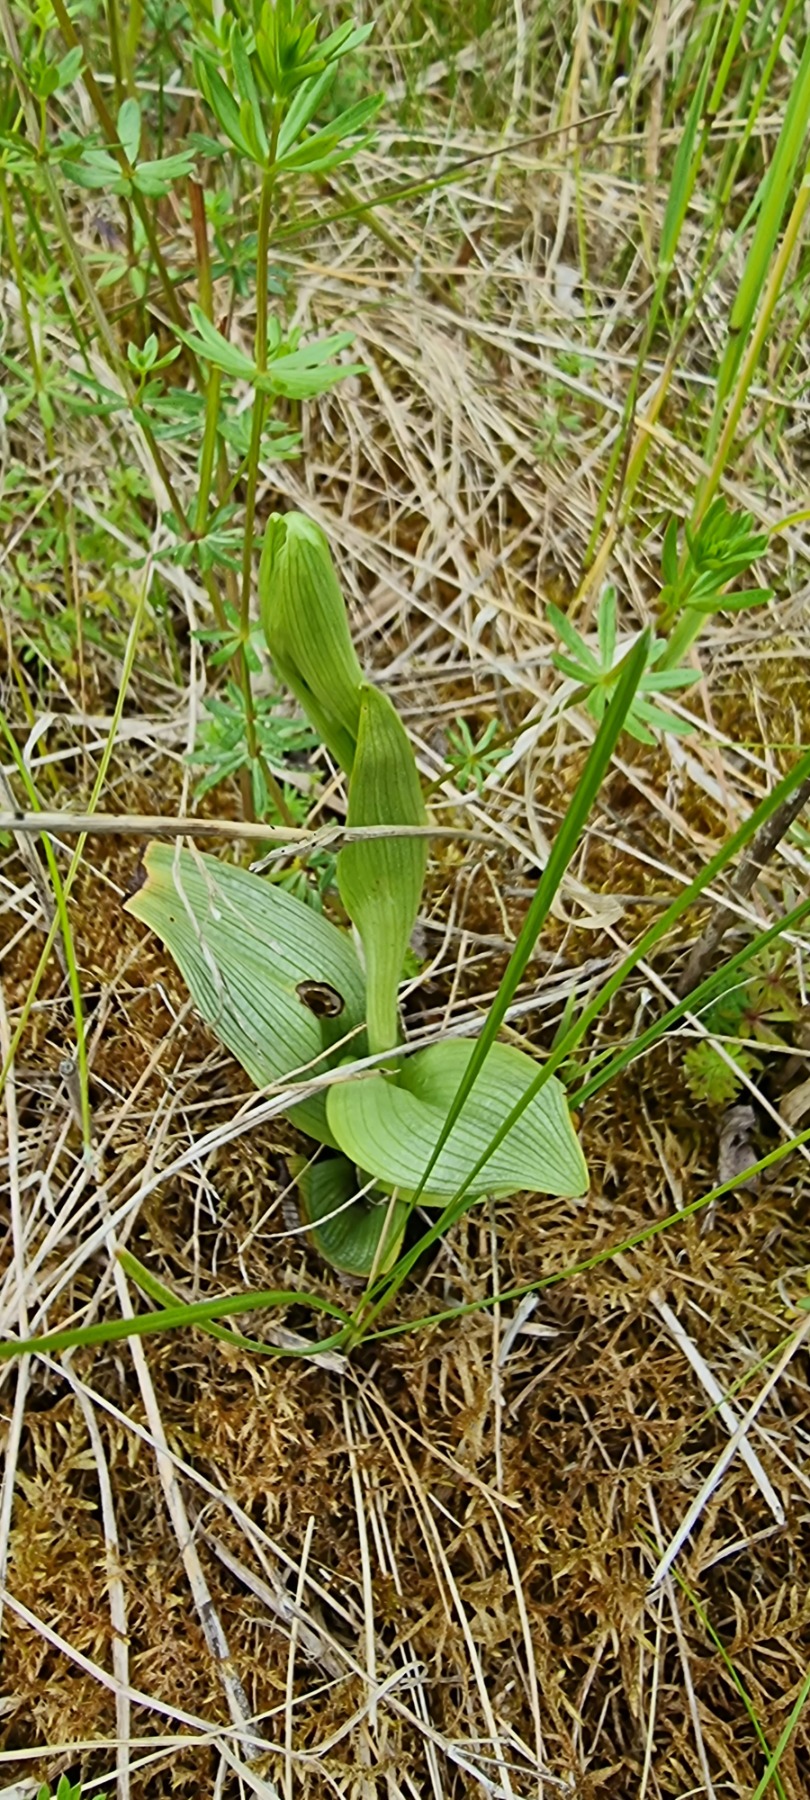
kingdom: Plantae
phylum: Tracheophyta
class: Liliopsida
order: Asparagales
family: Orchidaceae
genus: Ophrys
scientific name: Ophrys apifera
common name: Biblomst
